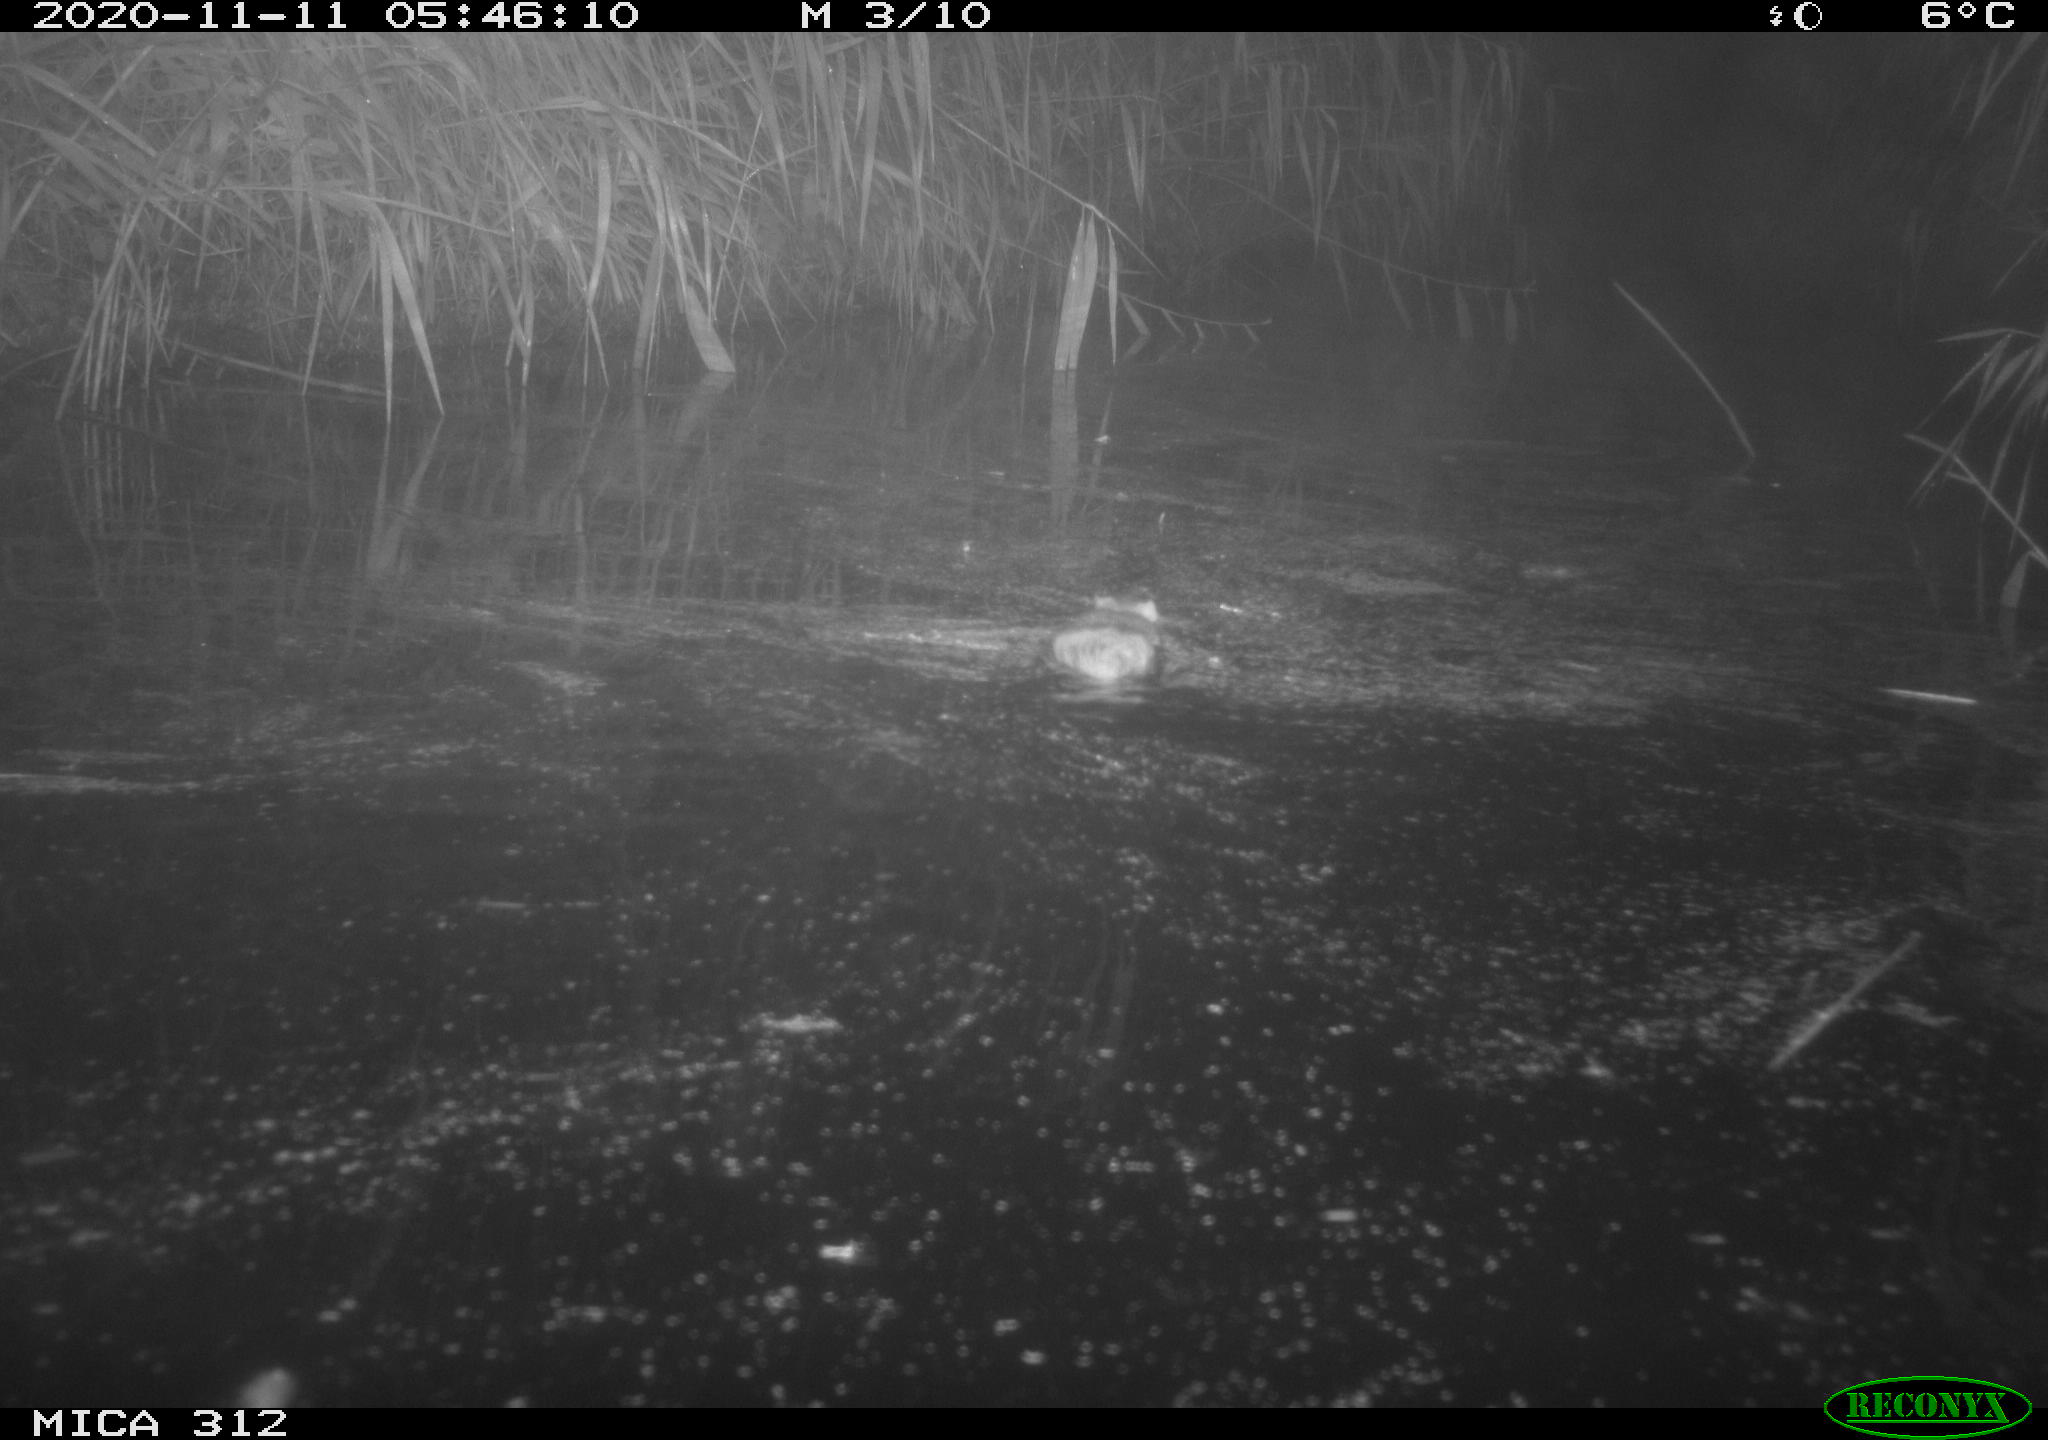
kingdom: Animalia
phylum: Chordata
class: Mammalia
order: Rodentia
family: Muridae
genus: Rattus
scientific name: Rattus norvegicus
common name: Brown rat
